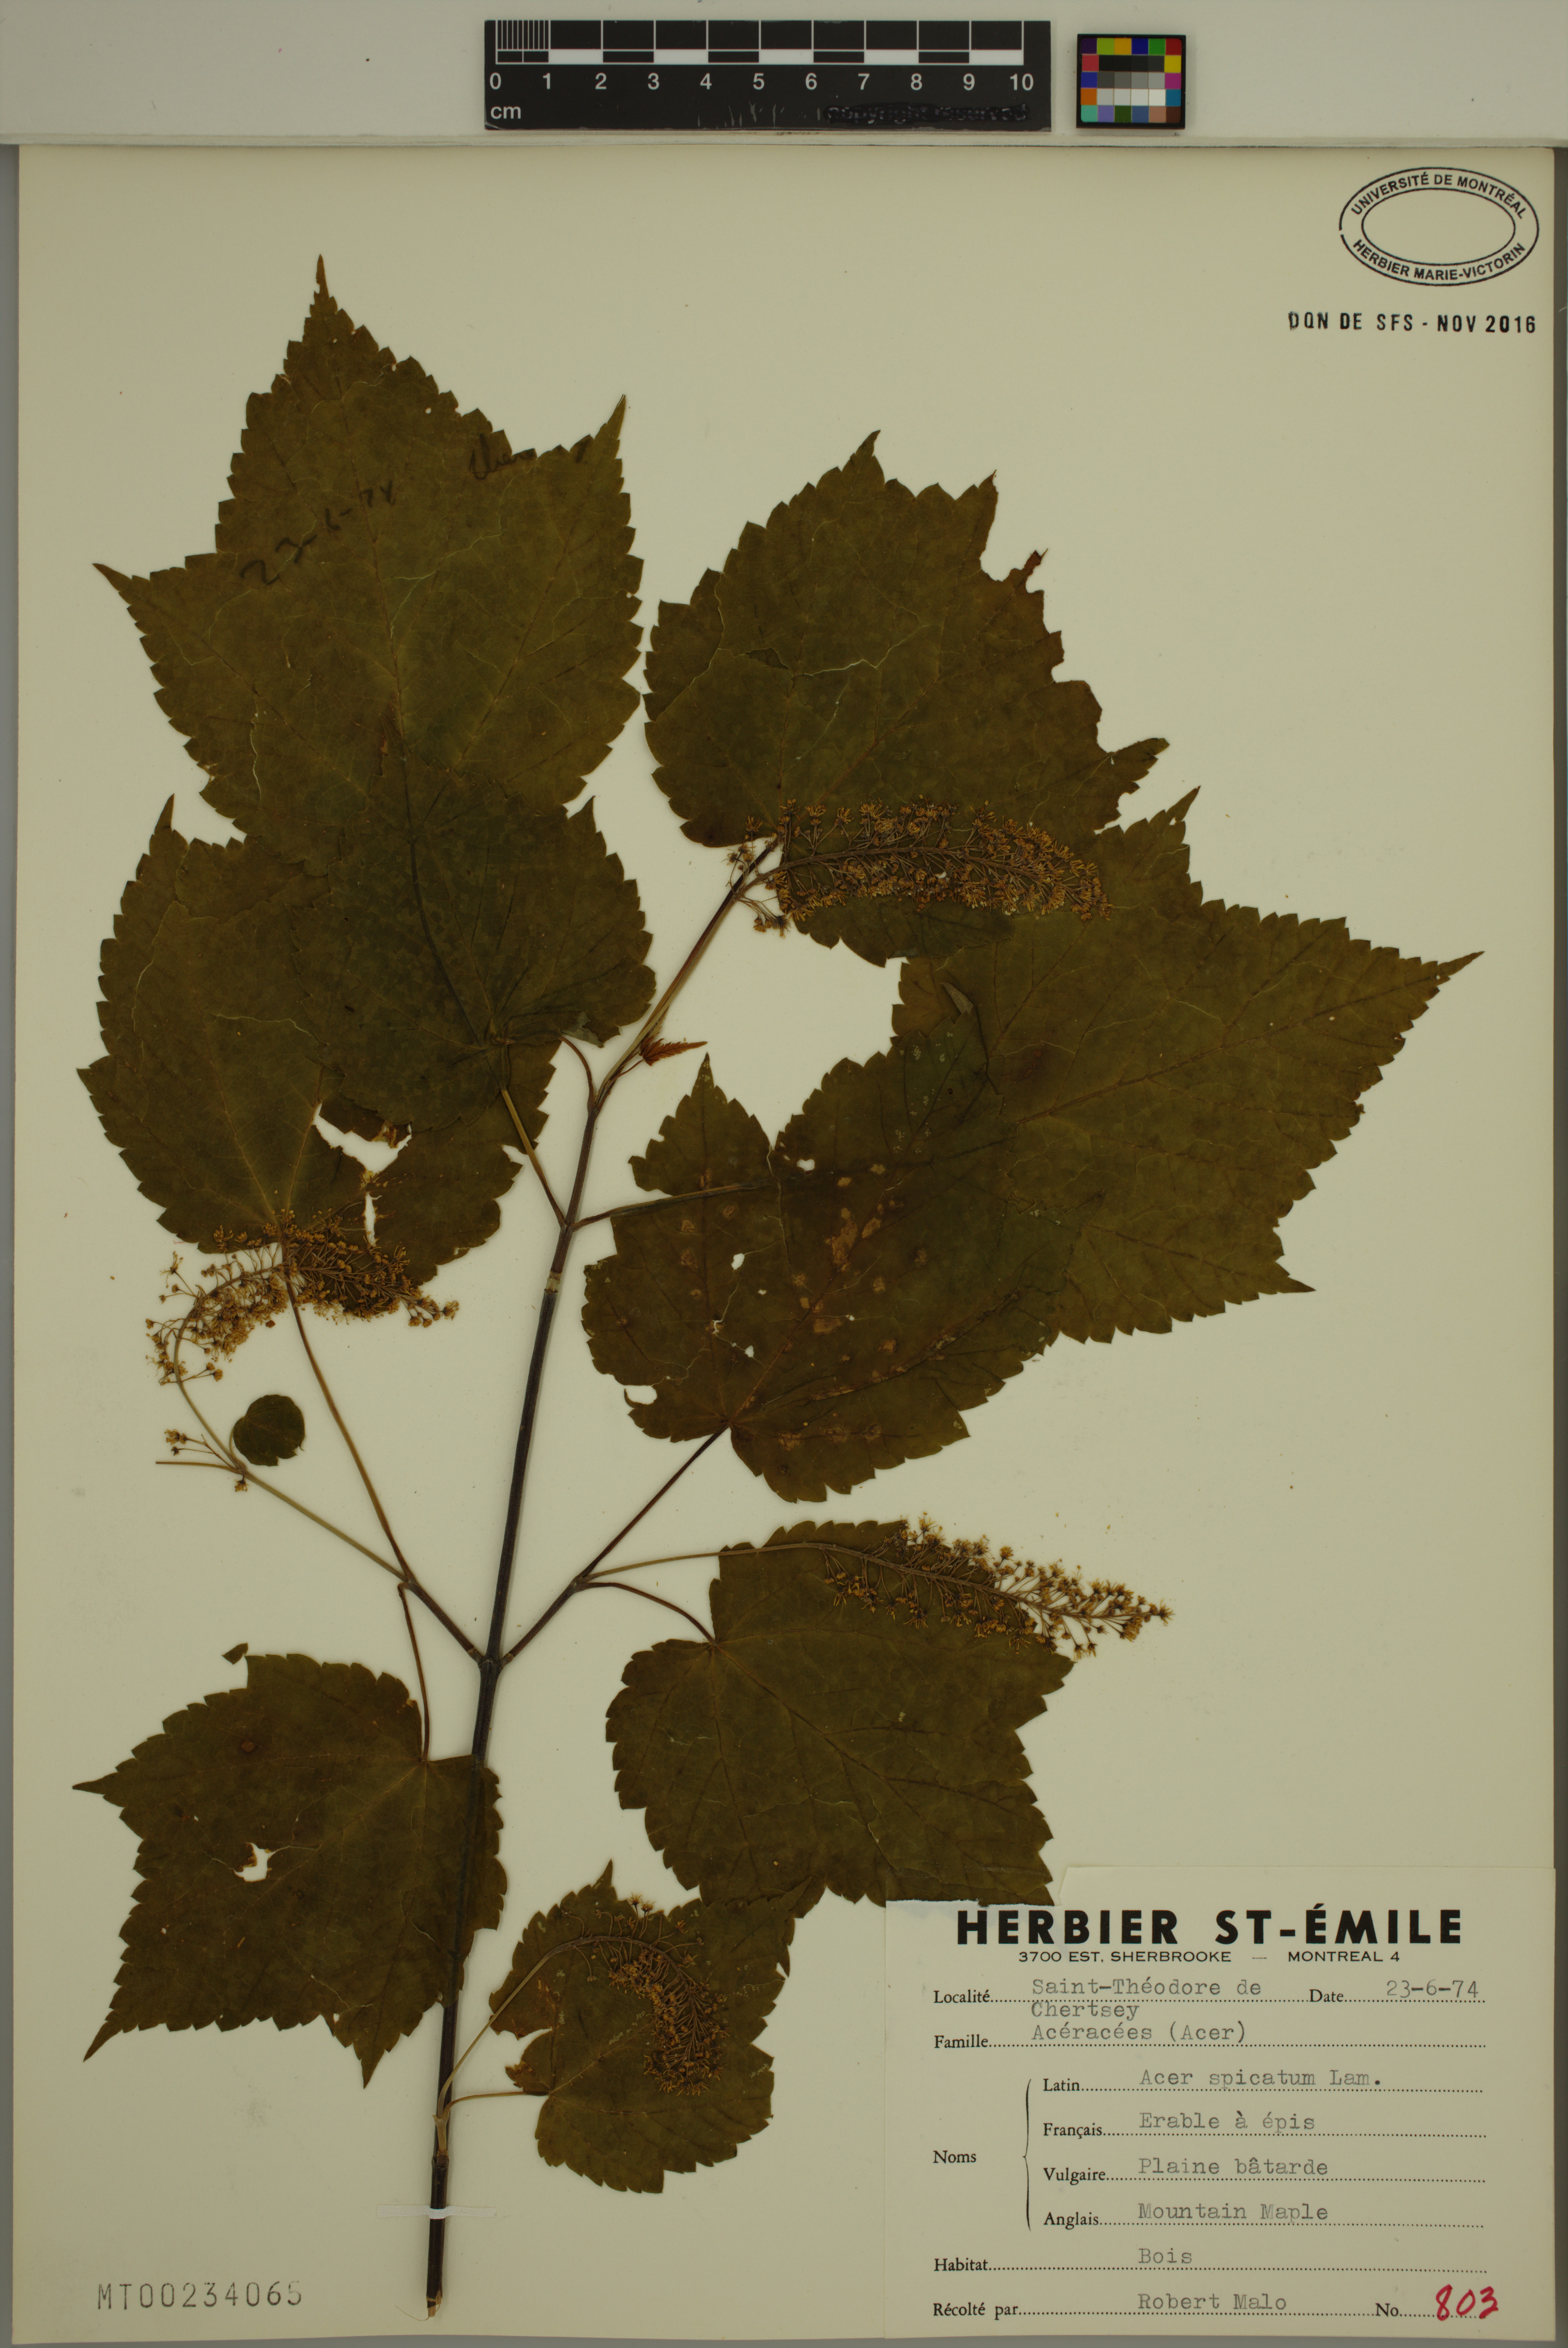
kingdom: Plantae
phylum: Tracheophyta
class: Magnoliopsida
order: Sapindales
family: Sapindaceae
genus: Acer
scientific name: Acer spicatum
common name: Mountain maple
